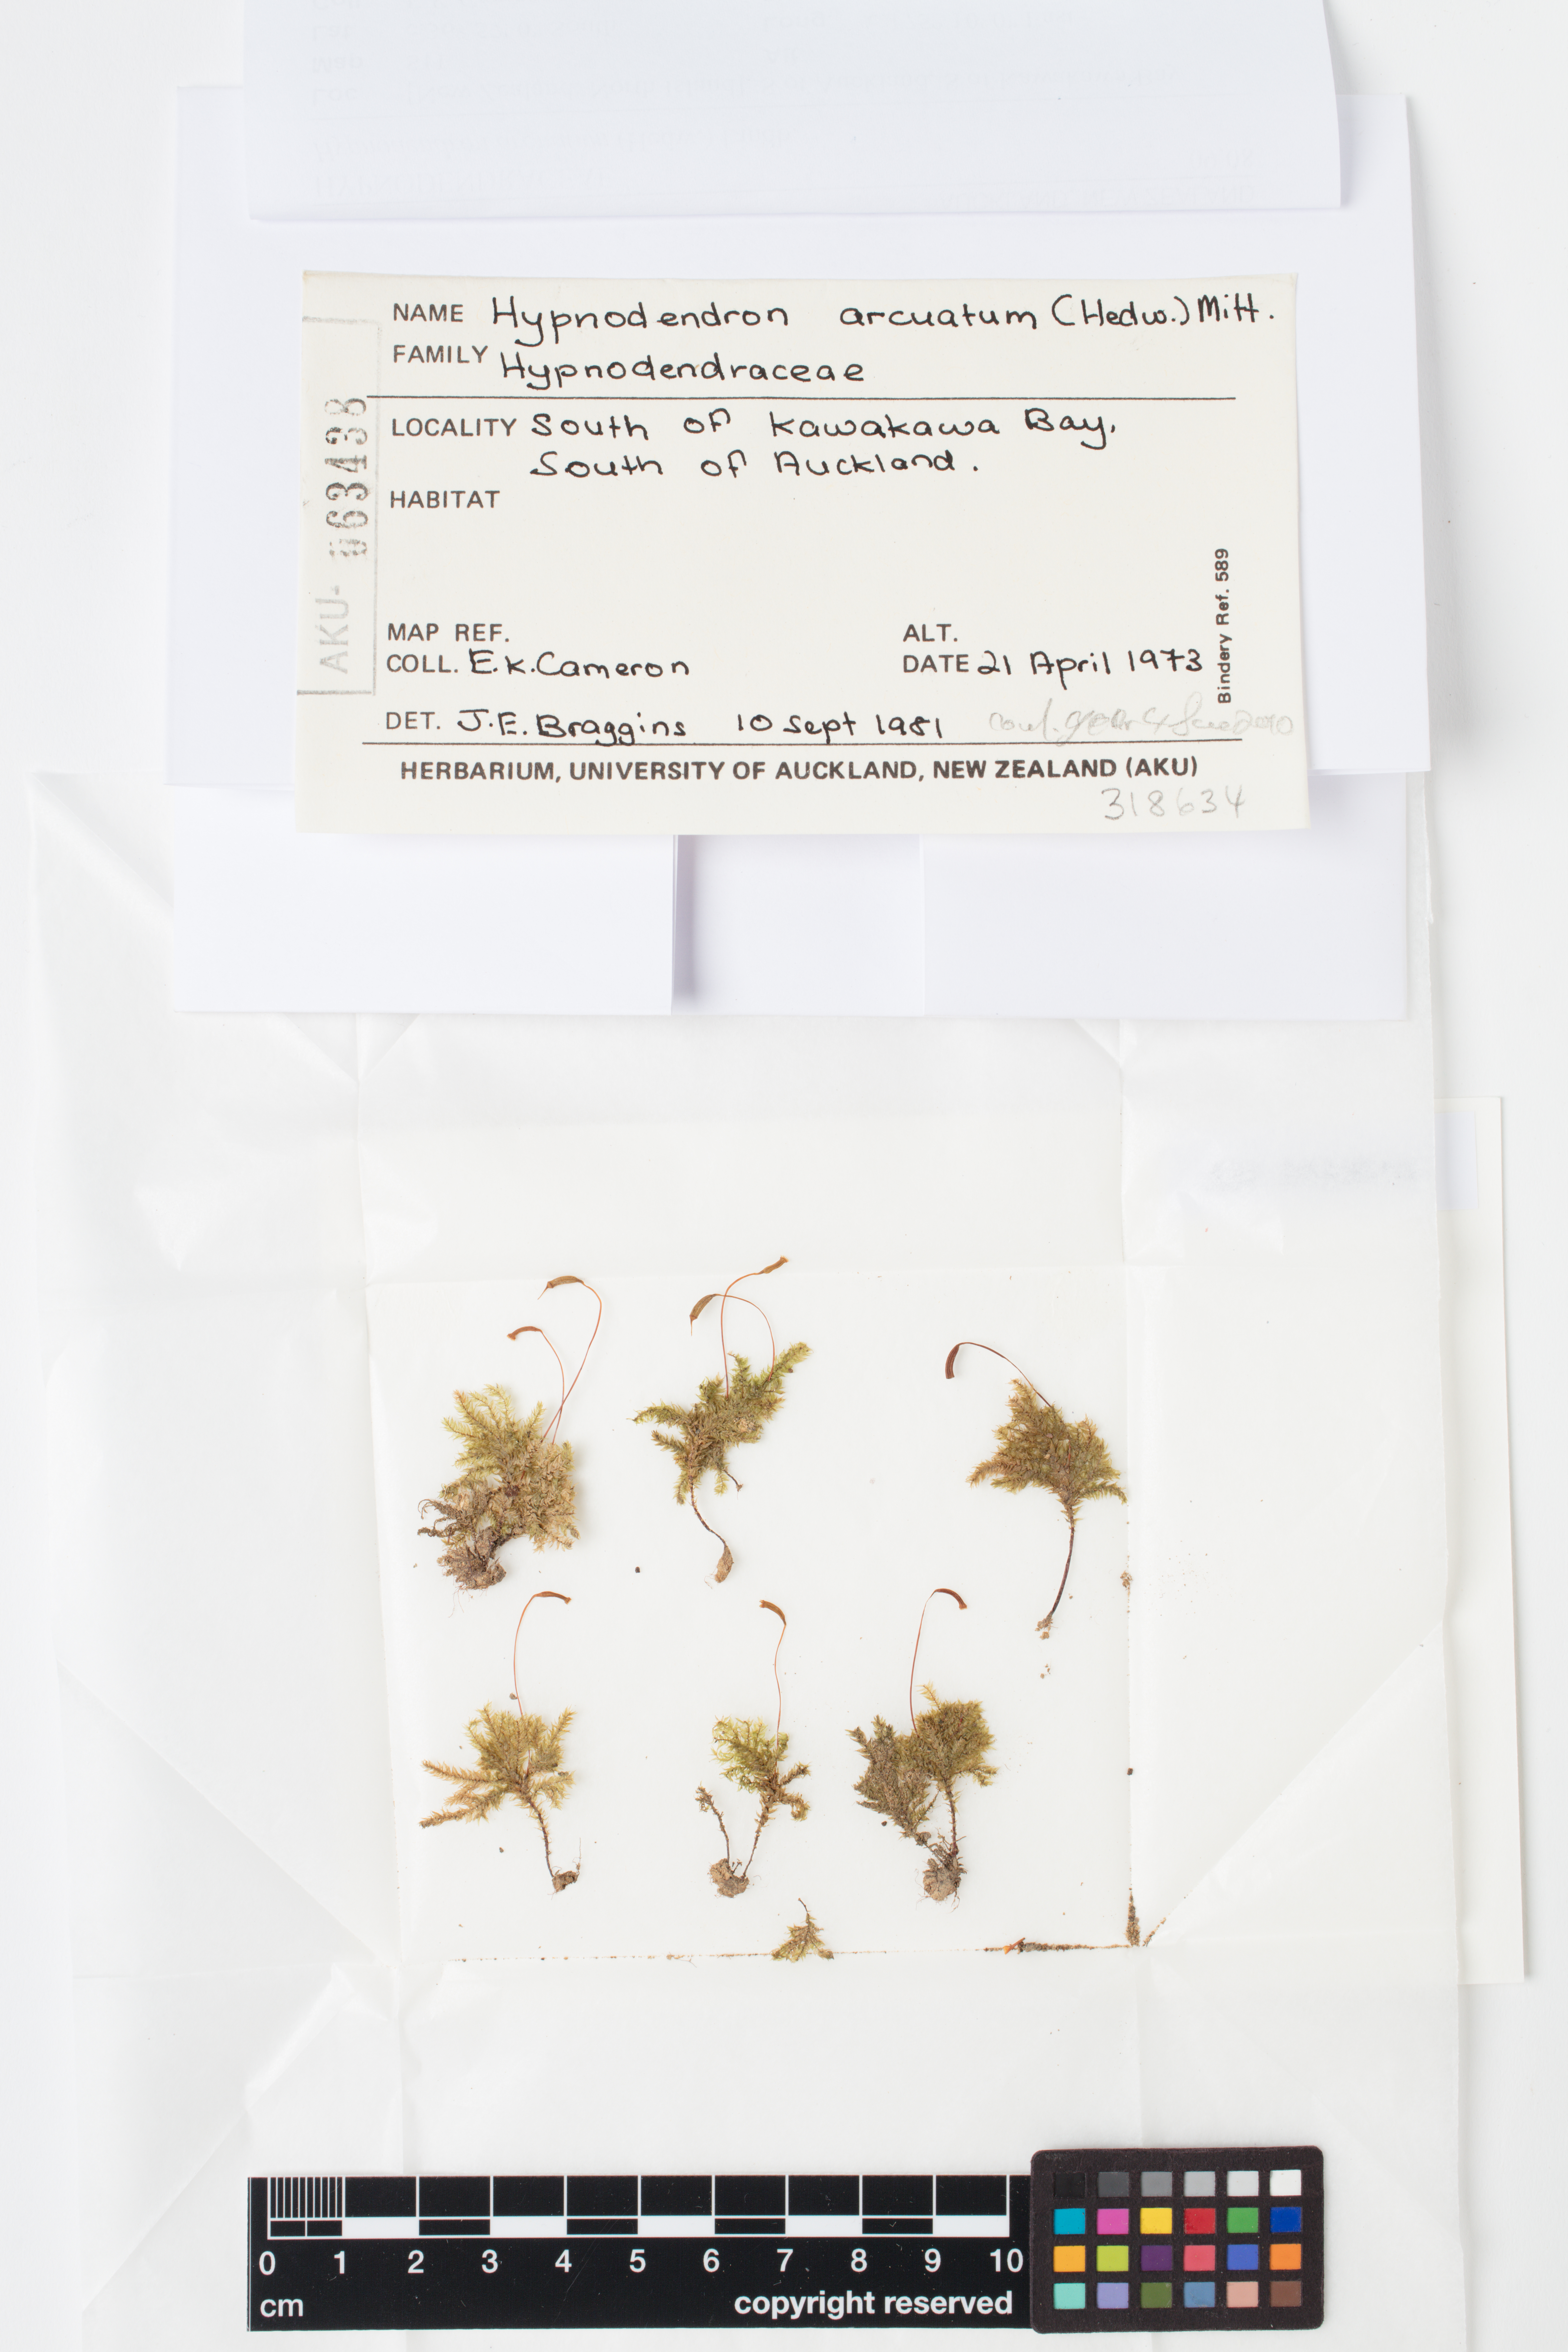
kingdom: Plantae
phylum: Bryophyta
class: Bryopsida
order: Hypnodendrales
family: Spiridentaceae
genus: Hypnodendron
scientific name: Hypnodendron arcuatum
